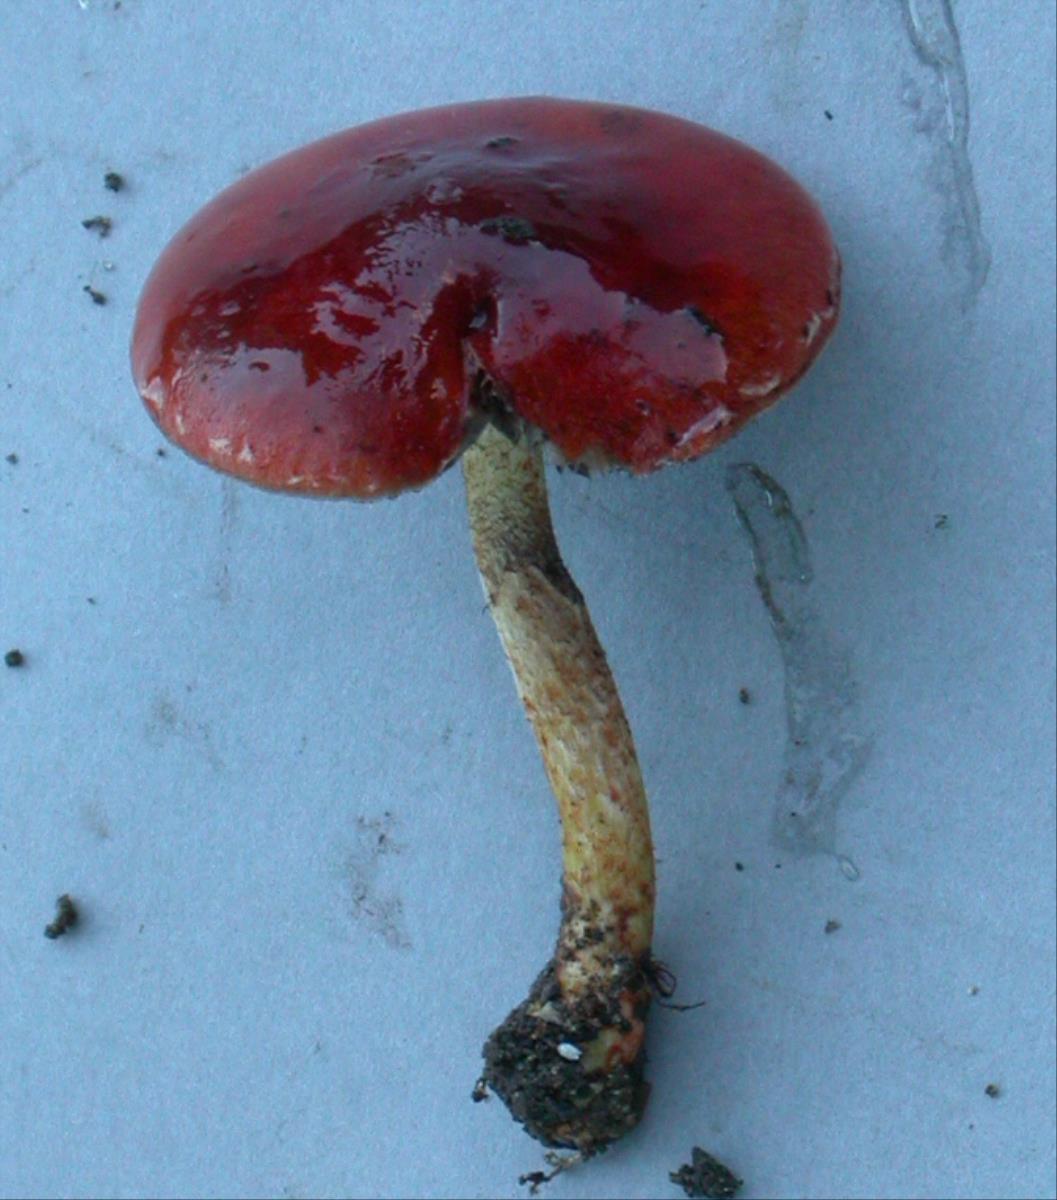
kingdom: Fungi
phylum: Basidiomycota
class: Agaricomycetes
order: Agaricales
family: Strophariaceae
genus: Leratiomyces
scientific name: Leratiomyces ceres
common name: Redlead roundhead
